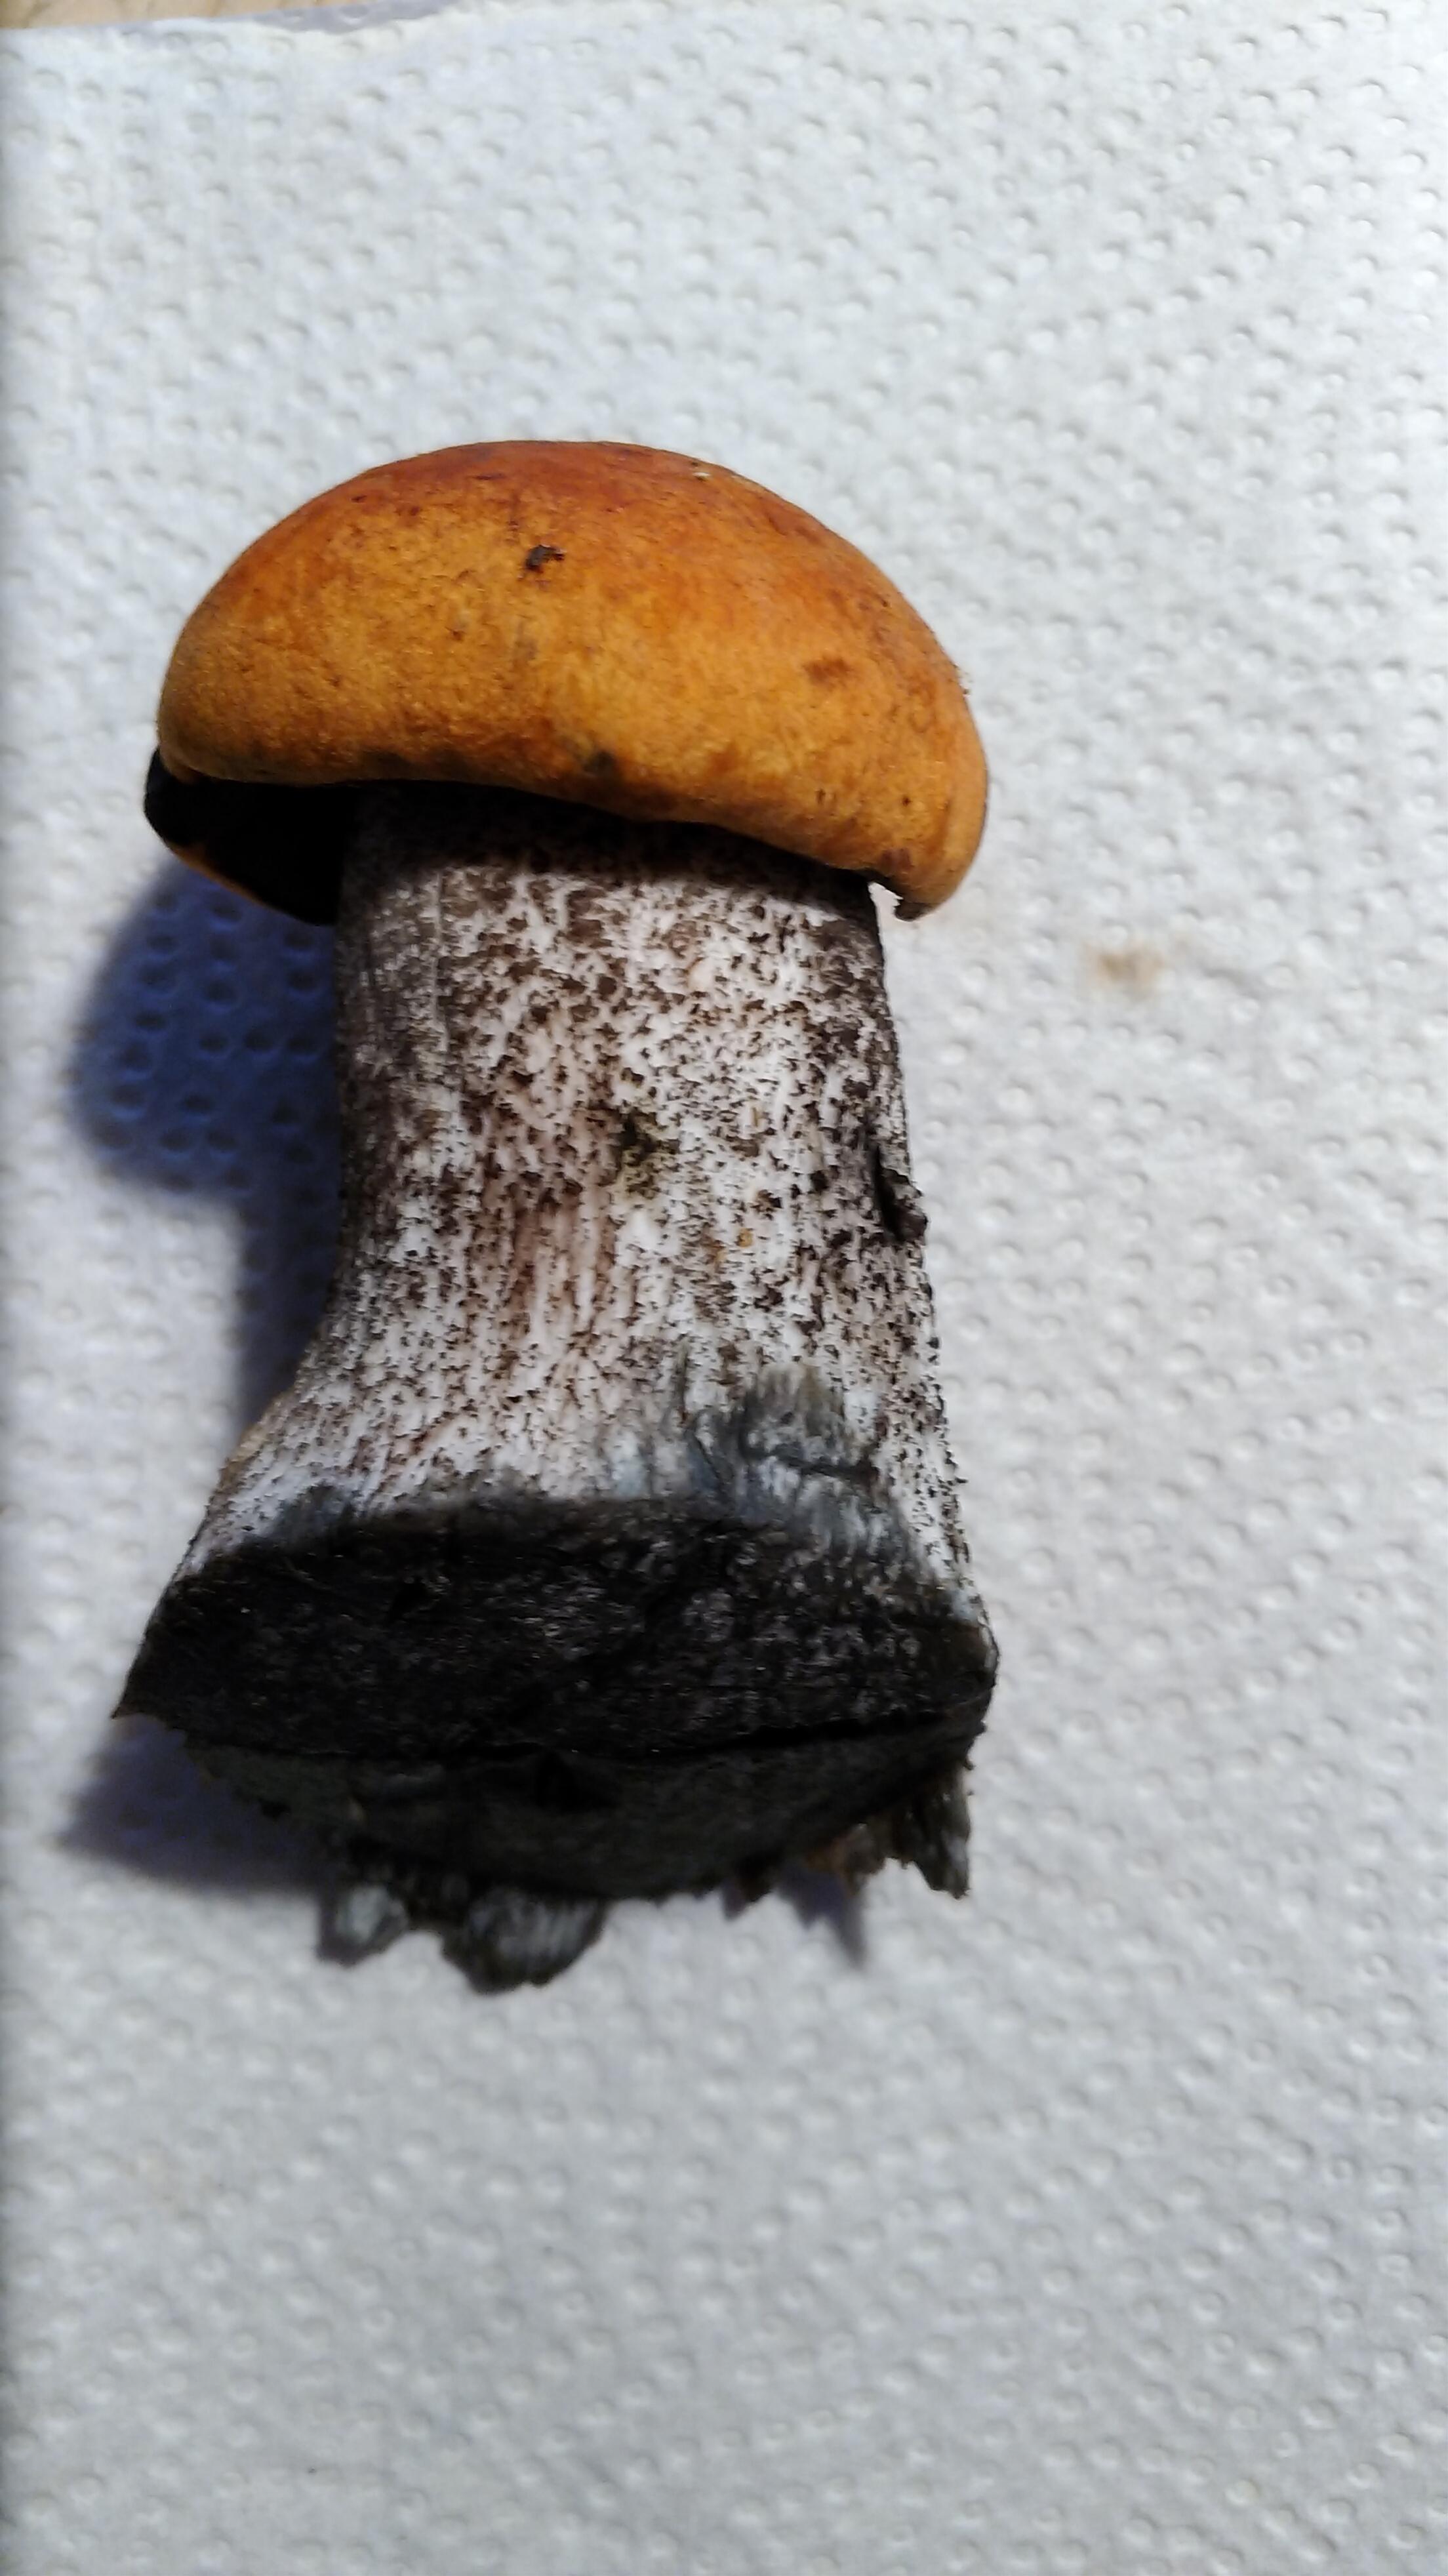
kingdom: Fungi
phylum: Basidiomycota
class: Agaricomycetes
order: Boletales
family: Boletaceae
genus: Leccinum
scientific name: Leccinum versipelle
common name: orange skælrørhat
